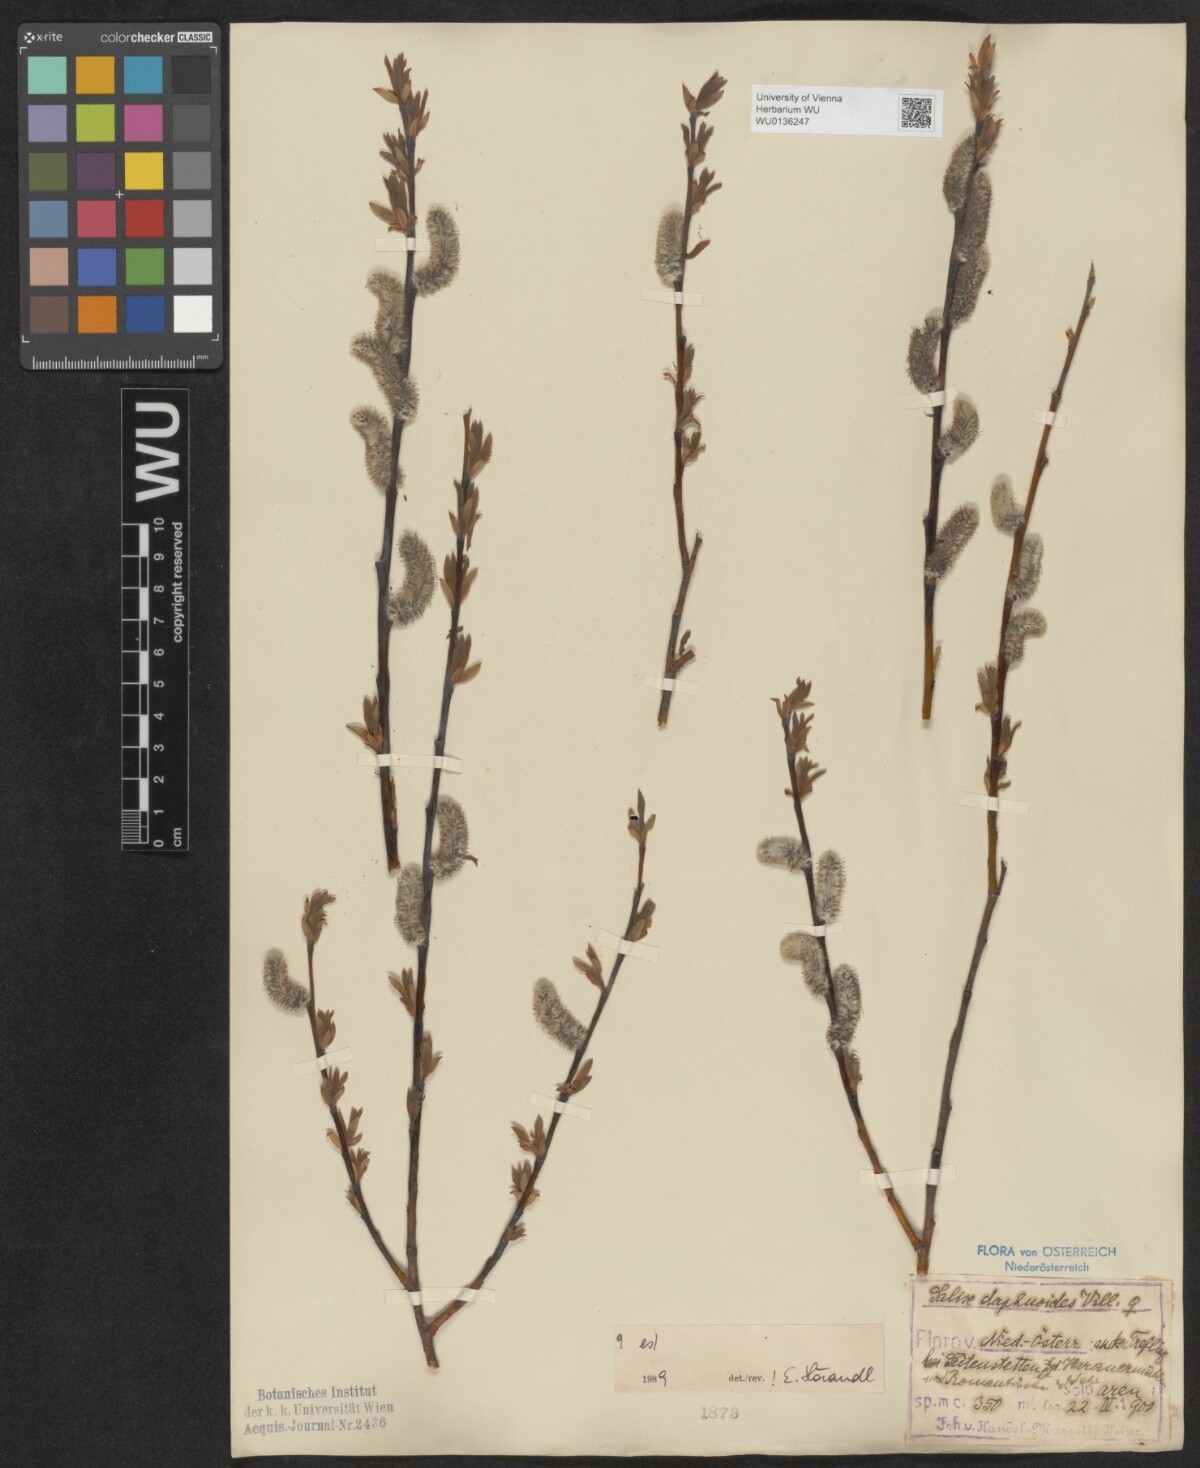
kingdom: Plantae
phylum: Tracheophyta
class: Magnoliopsida
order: Malpighiales
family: Salicaceae
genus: Salix
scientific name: Salix daphnoides
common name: European violet-willow
